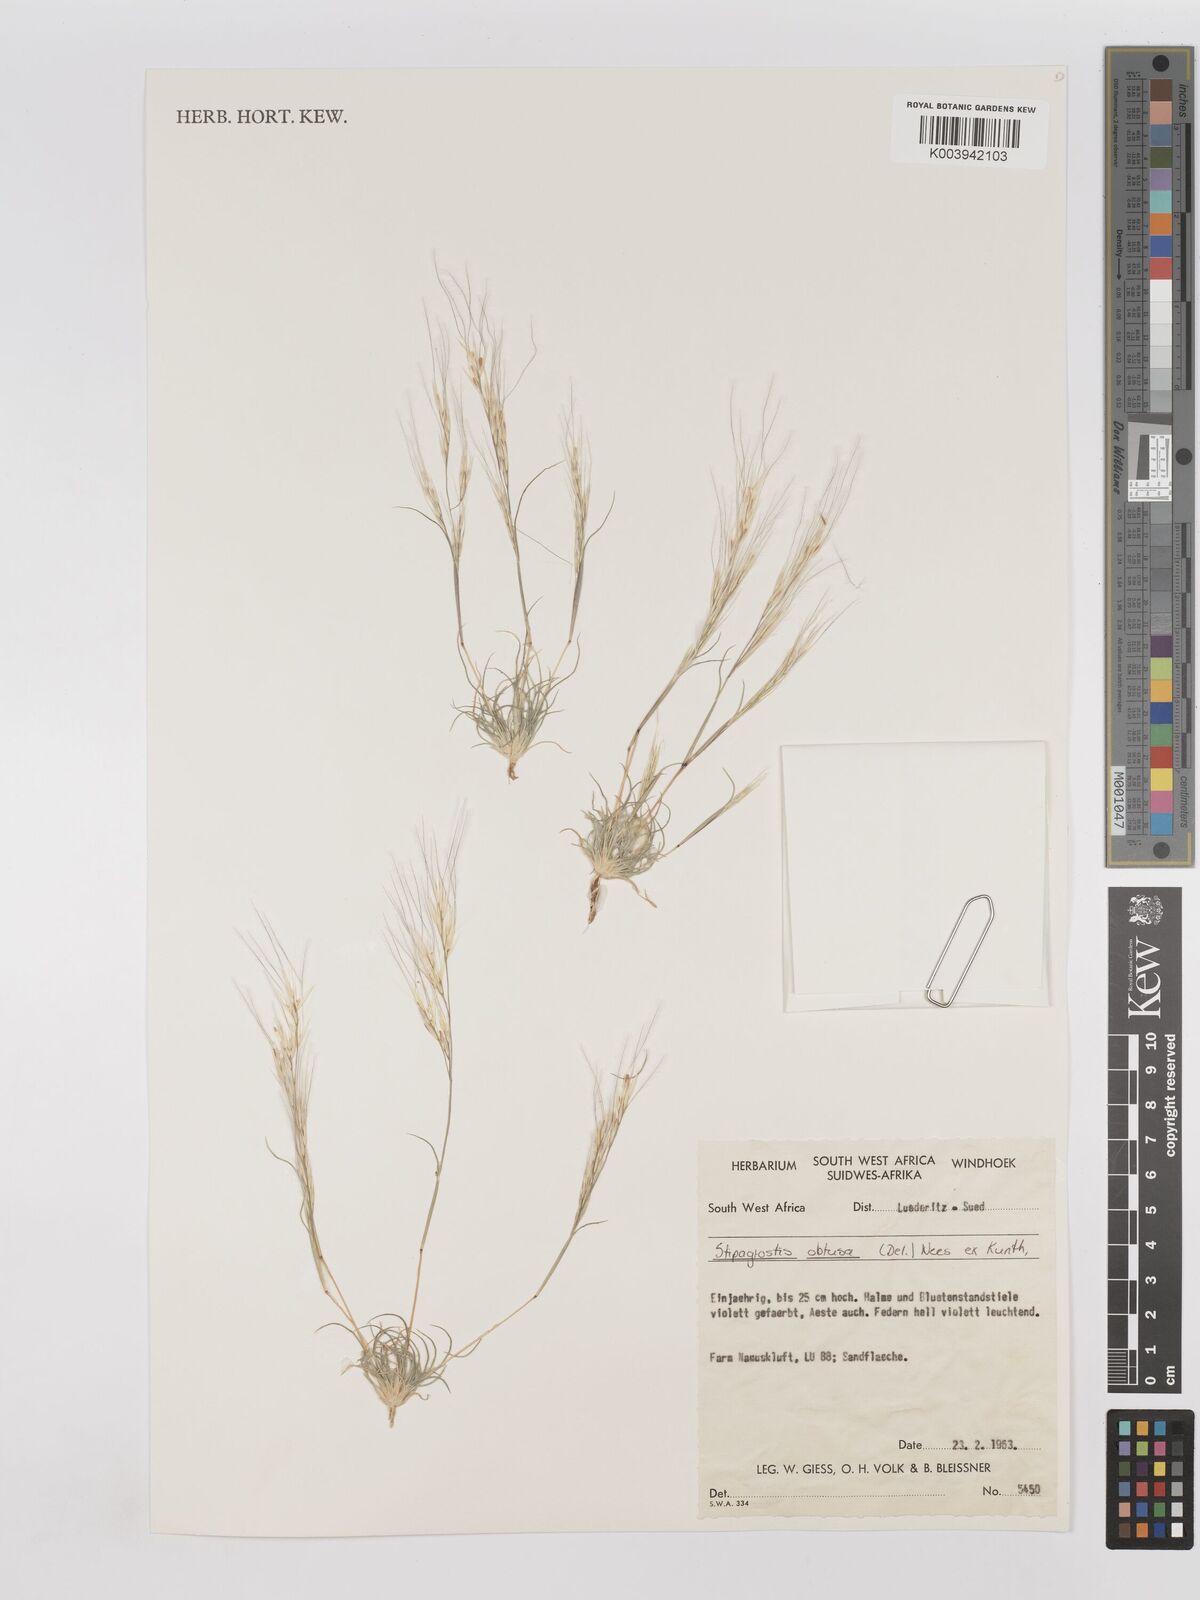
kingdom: Plantae
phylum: Tracheophyta
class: Liliopsida
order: Poales
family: Poaceae
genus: Stipagrostis
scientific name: Stipagrostis obtusa
